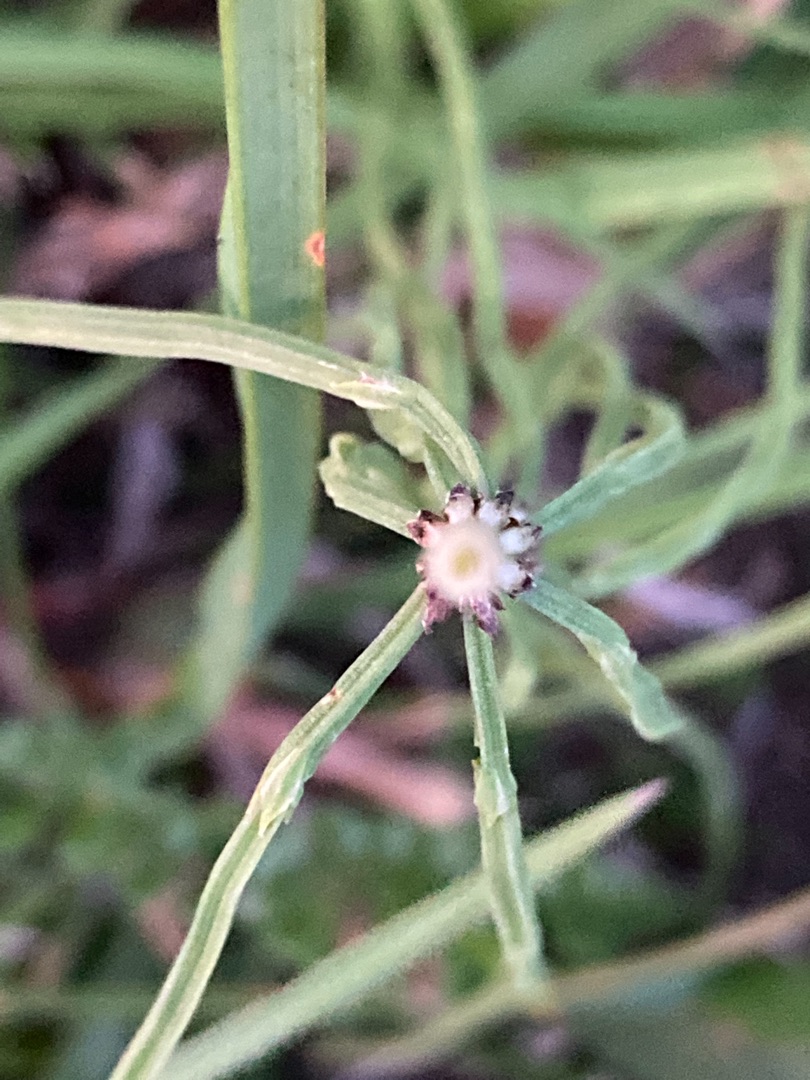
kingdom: Plantae
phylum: Tracheophyta
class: Polypodiopsida
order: Equisetales
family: Equisetaceae
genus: Equisetum
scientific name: Equisetum arvense
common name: Ager-padderok
